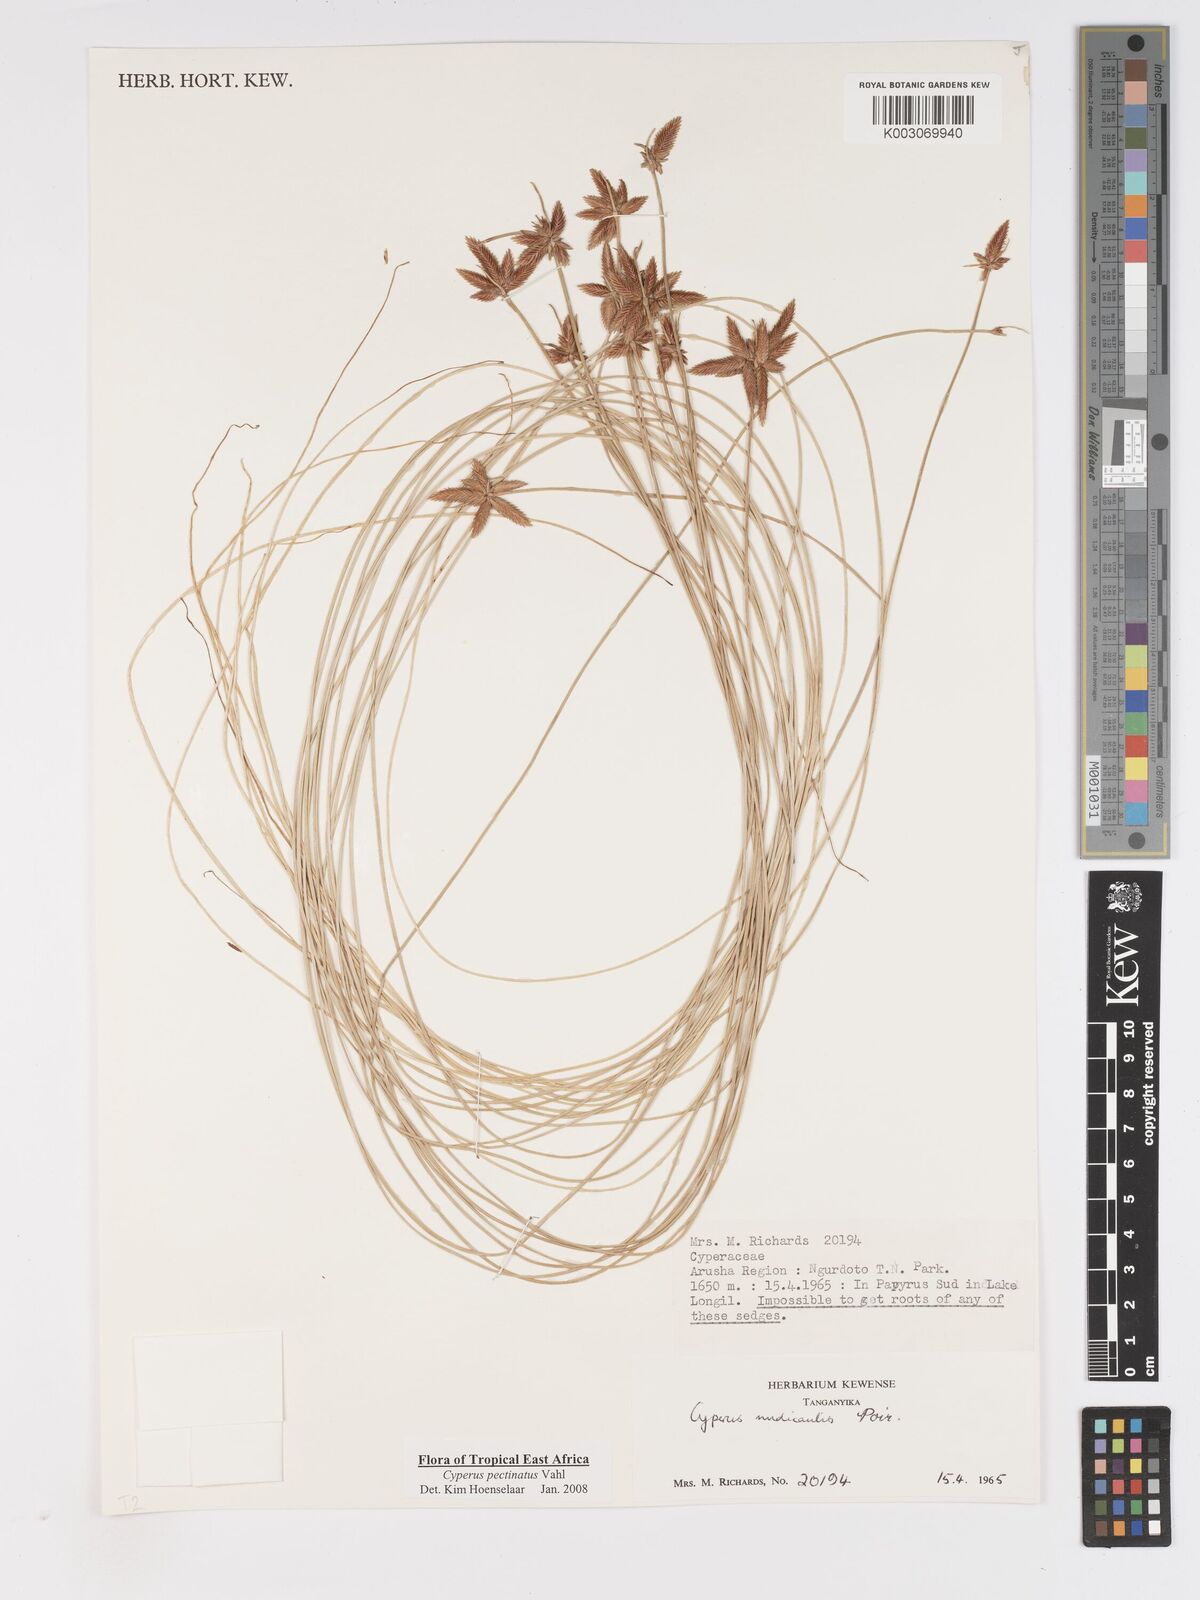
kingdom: Plantae
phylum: Tracheophyta
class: Liliopsida
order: Poales
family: Cyperaceae
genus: Cyperus
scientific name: Cyperus pectinatus
